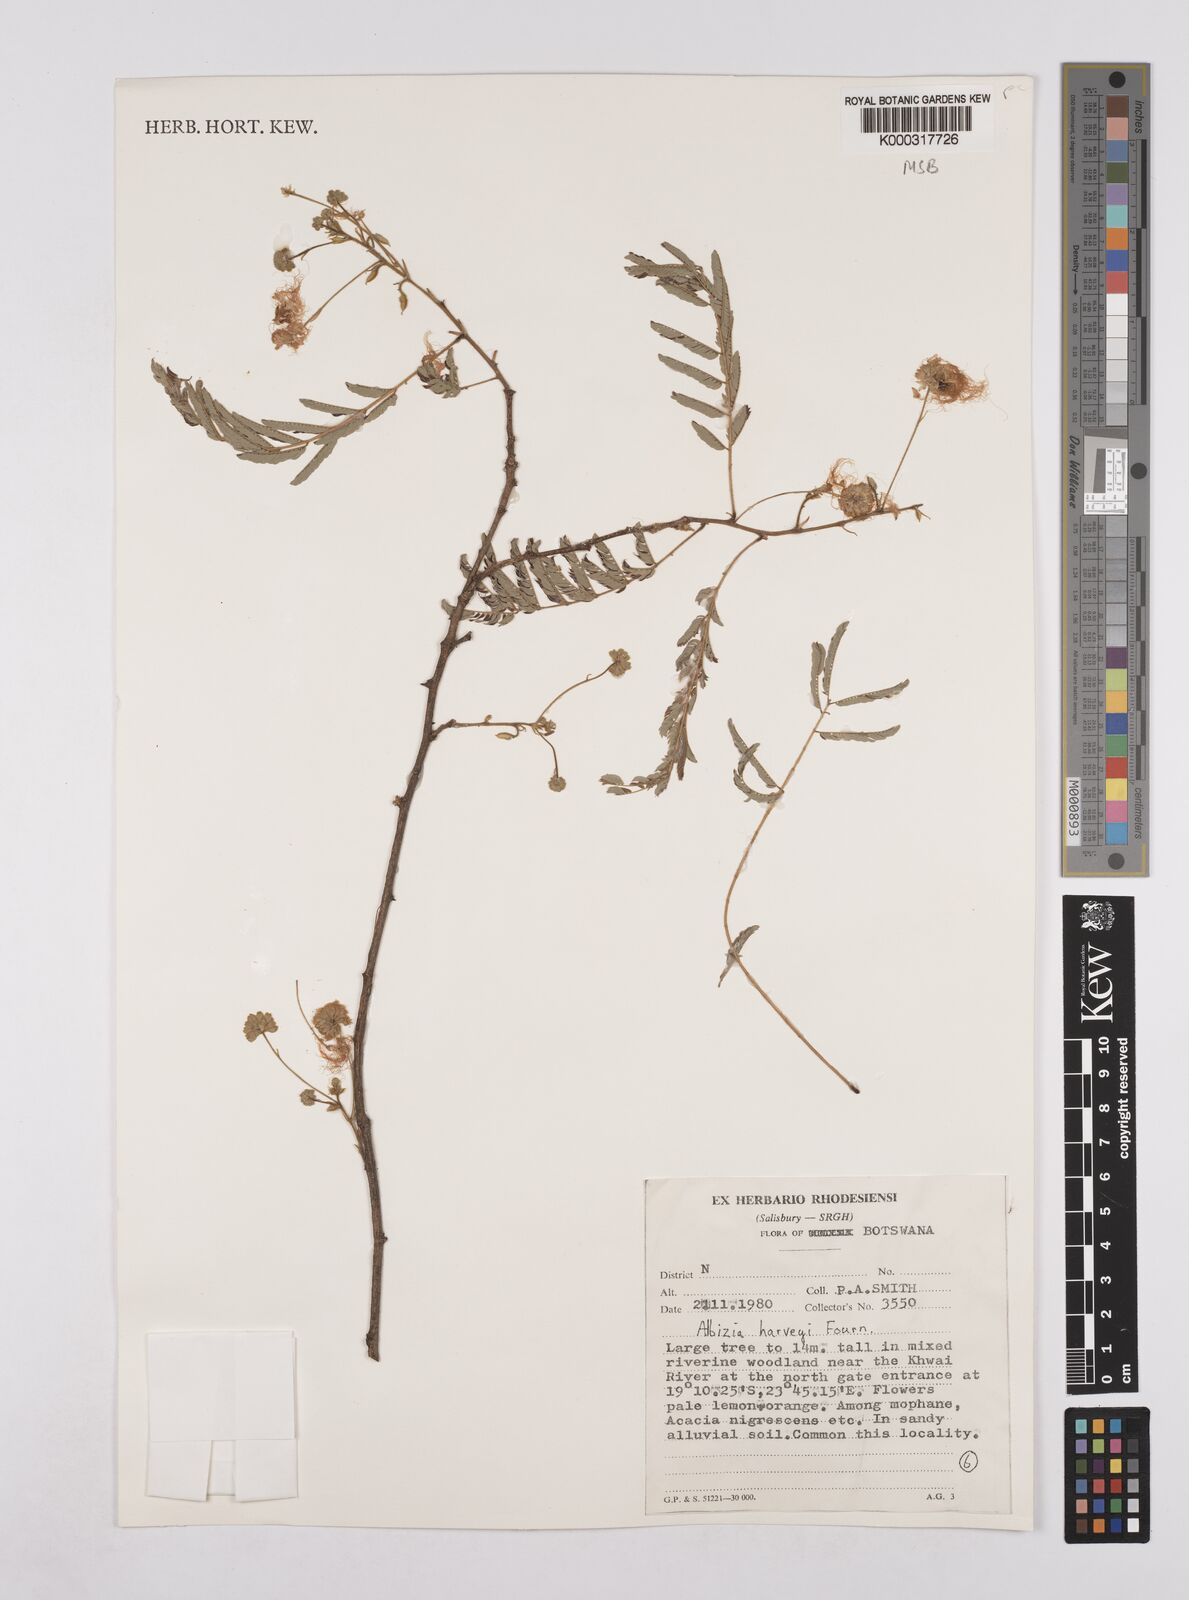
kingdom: Plantae
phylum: Tracheophyta
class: Magnoliopsida
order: Fabales
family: Fabaceae
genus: Albizia
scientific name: Albizia harveyi
